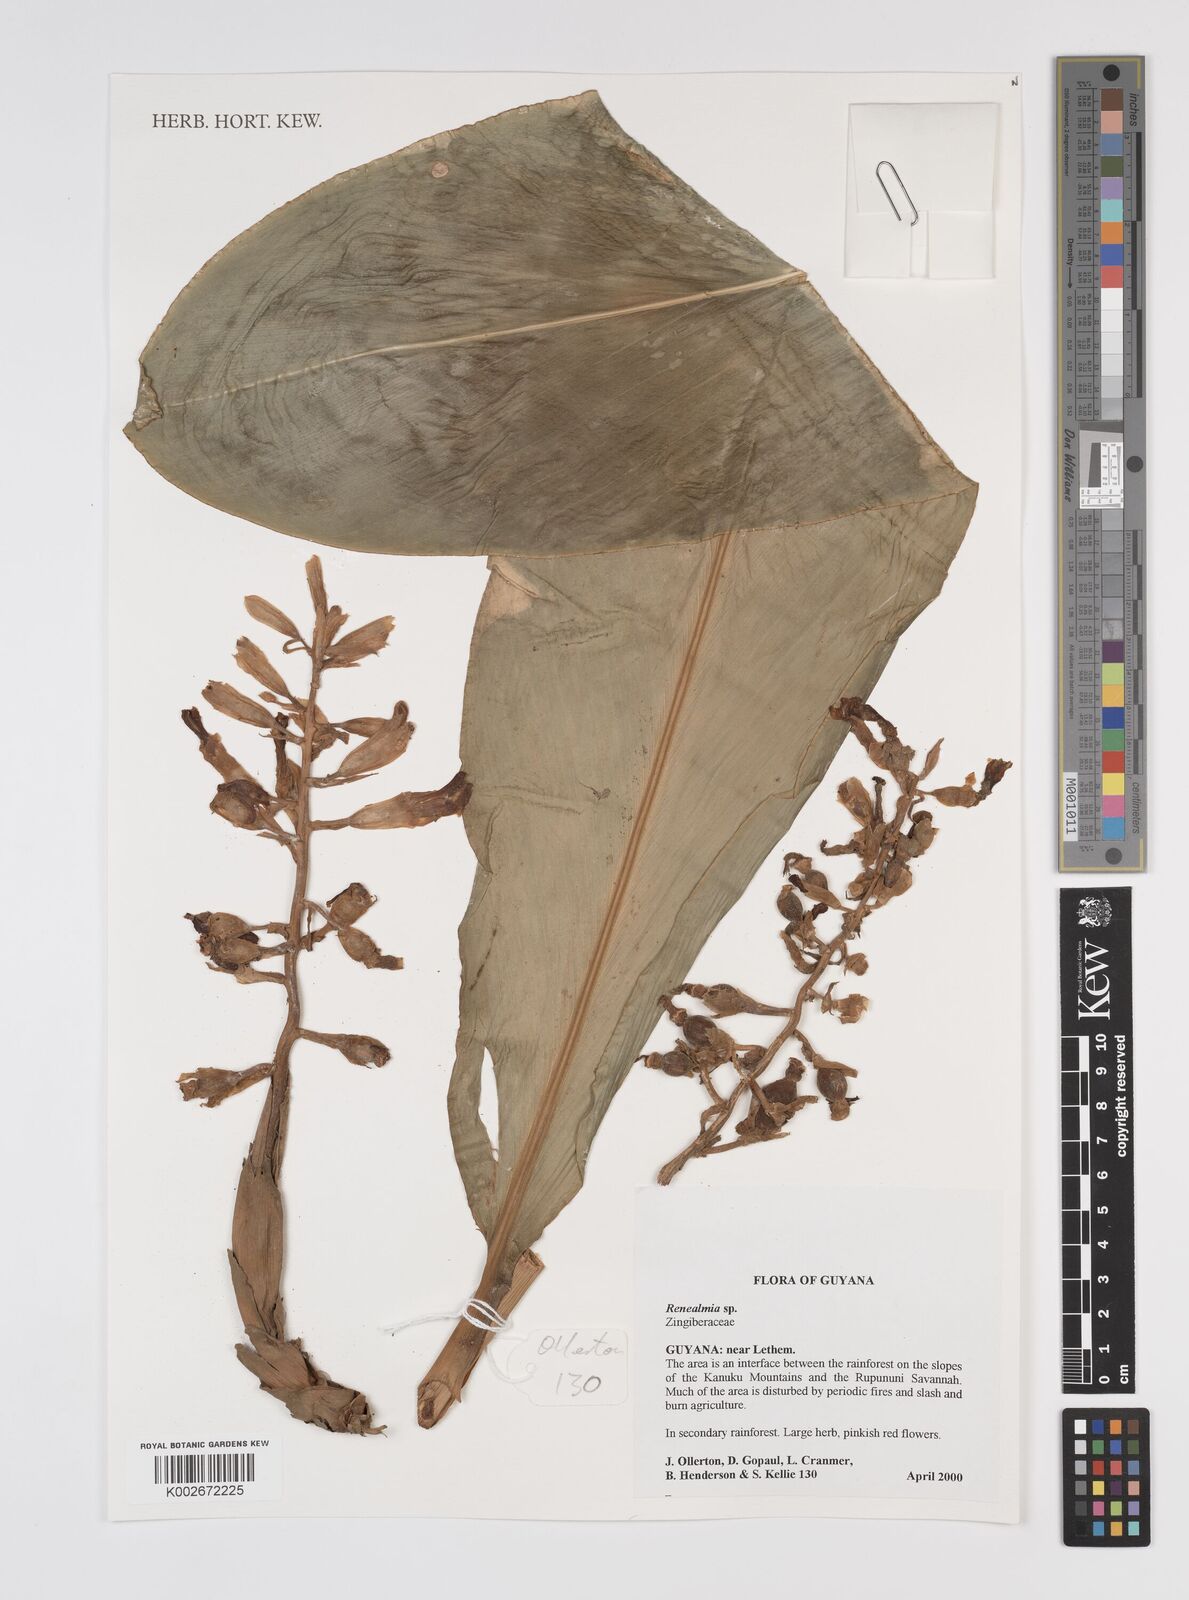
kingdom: Plantae
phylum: Tracheophyta
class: Liliopsida
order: Zingiberales
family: Zingiberaceae
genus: Renealmia
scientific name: Renealmia
